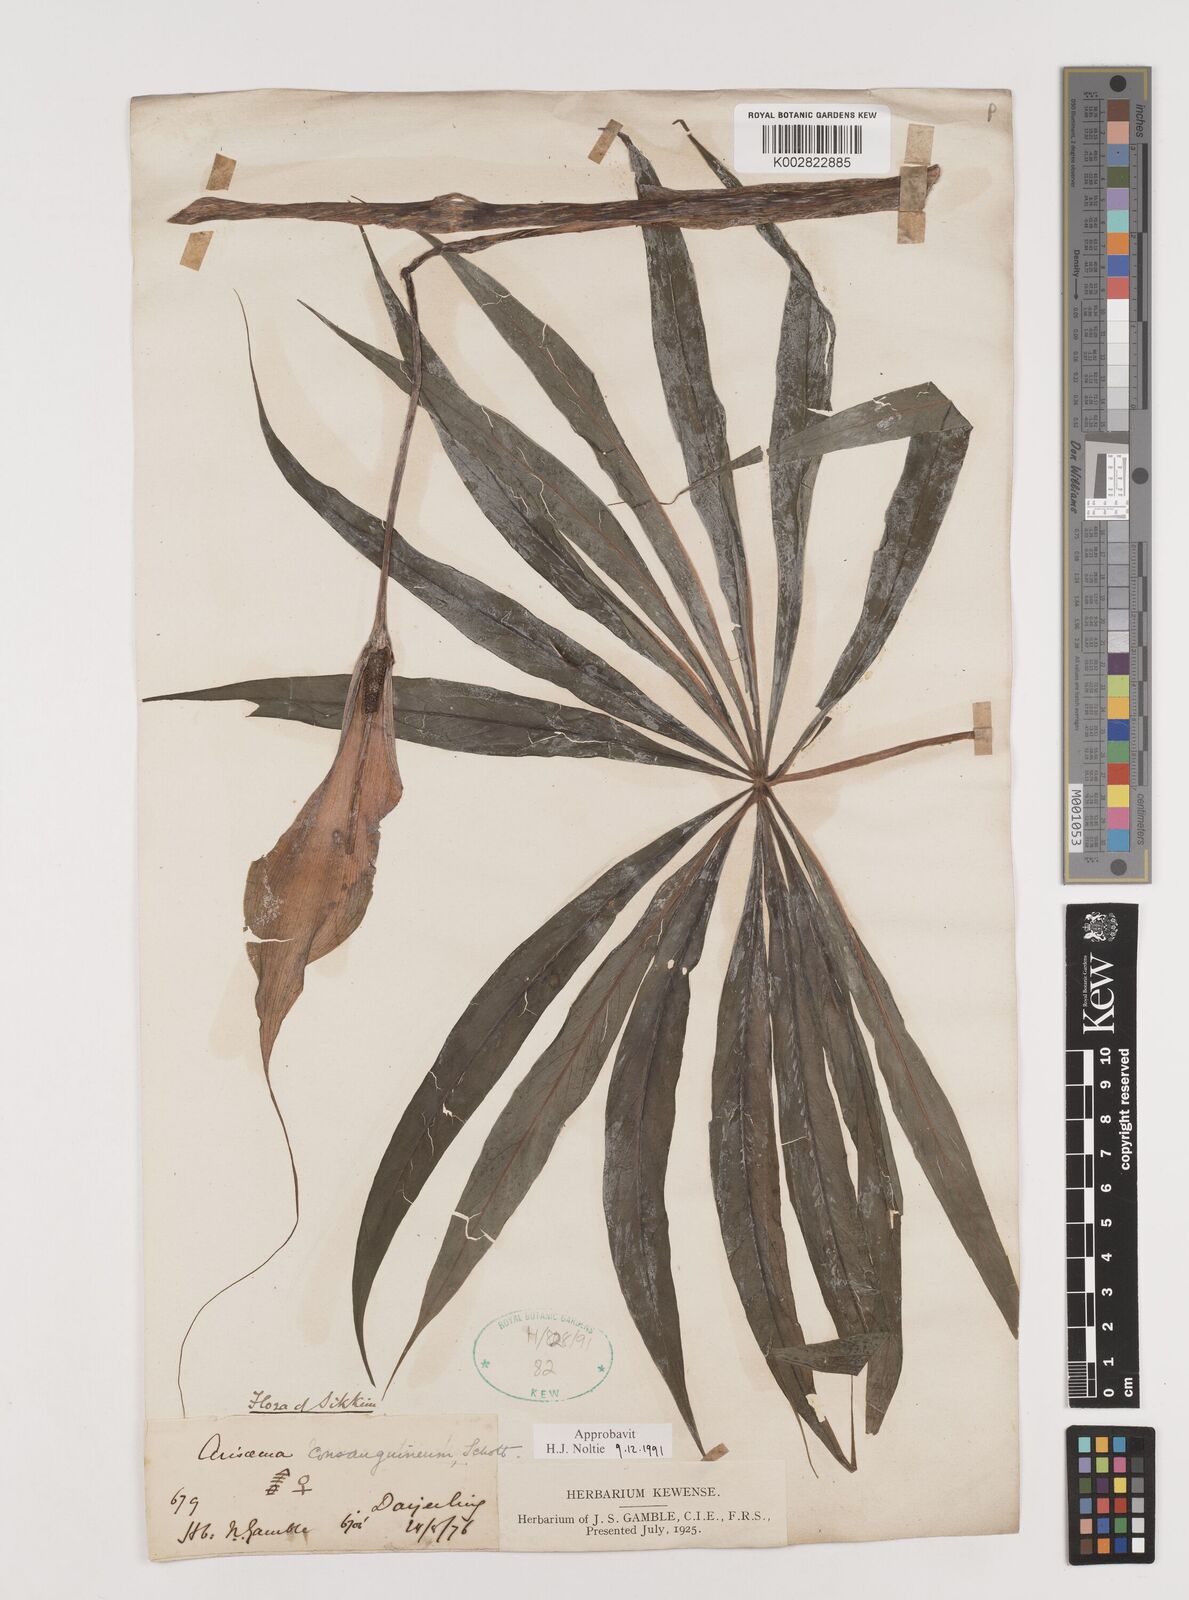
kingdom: Plantae
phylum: Tracheophyta
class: Liliopsida
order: Alismatales
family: Araceae
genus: Arisaema
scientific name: Arisaema erubescens
